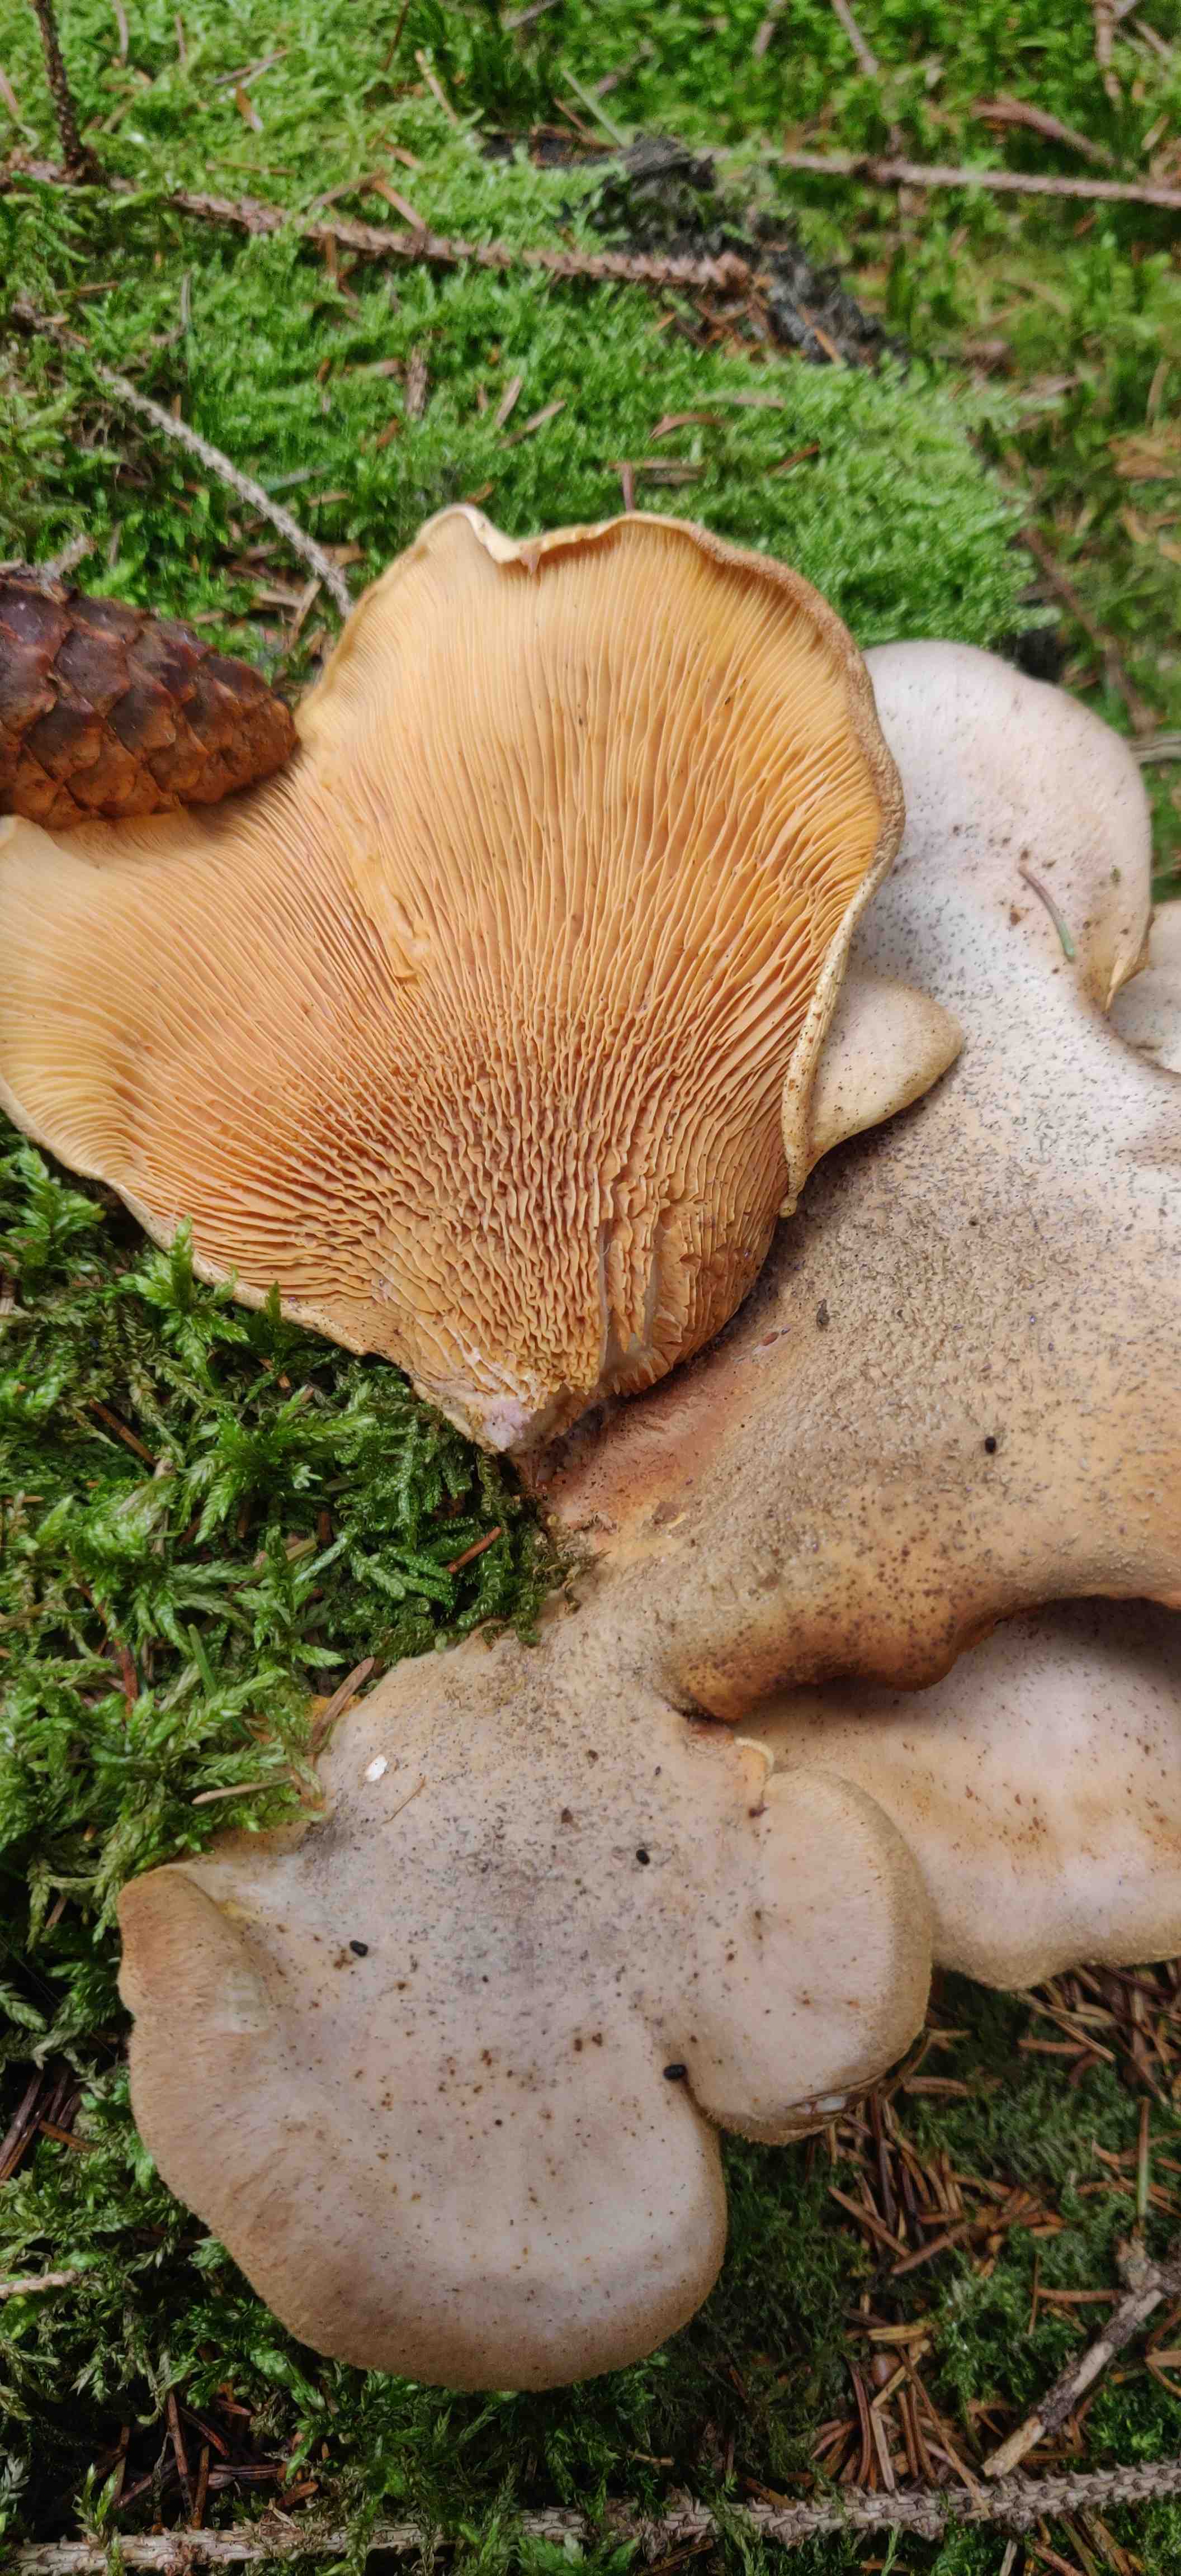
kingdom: Fungi
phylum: Basidiomycota
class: Agaricomycetes
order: Boletales
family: Tapinellaceae
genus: Tapinella
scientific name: Tapinella atrotomentosa
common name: sortfiltet viftesvamp
